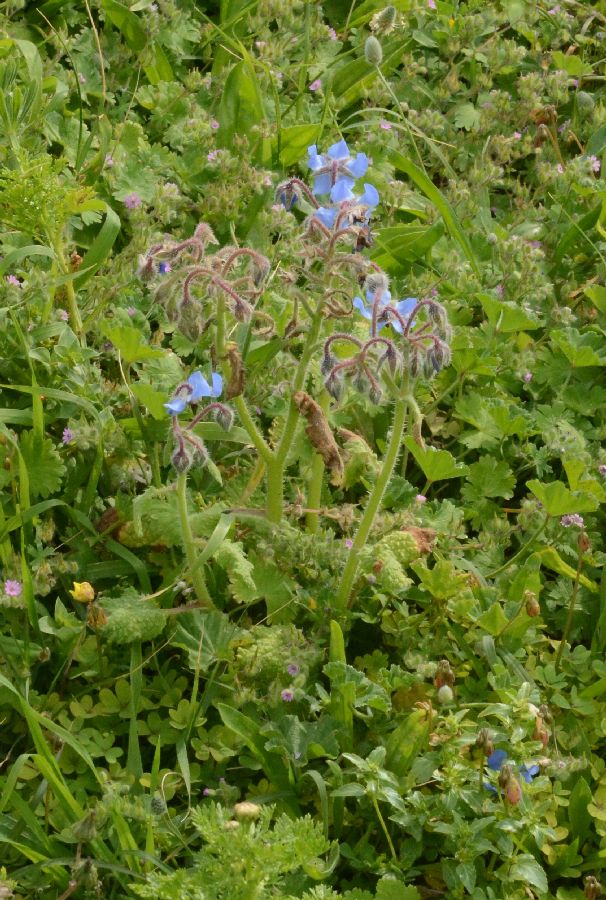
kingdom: Plantae
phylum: Tracheophyta
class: Magnoliopsida
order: Boraginales
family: Boraginaceae
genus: Borago
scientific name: Borago officinalis
